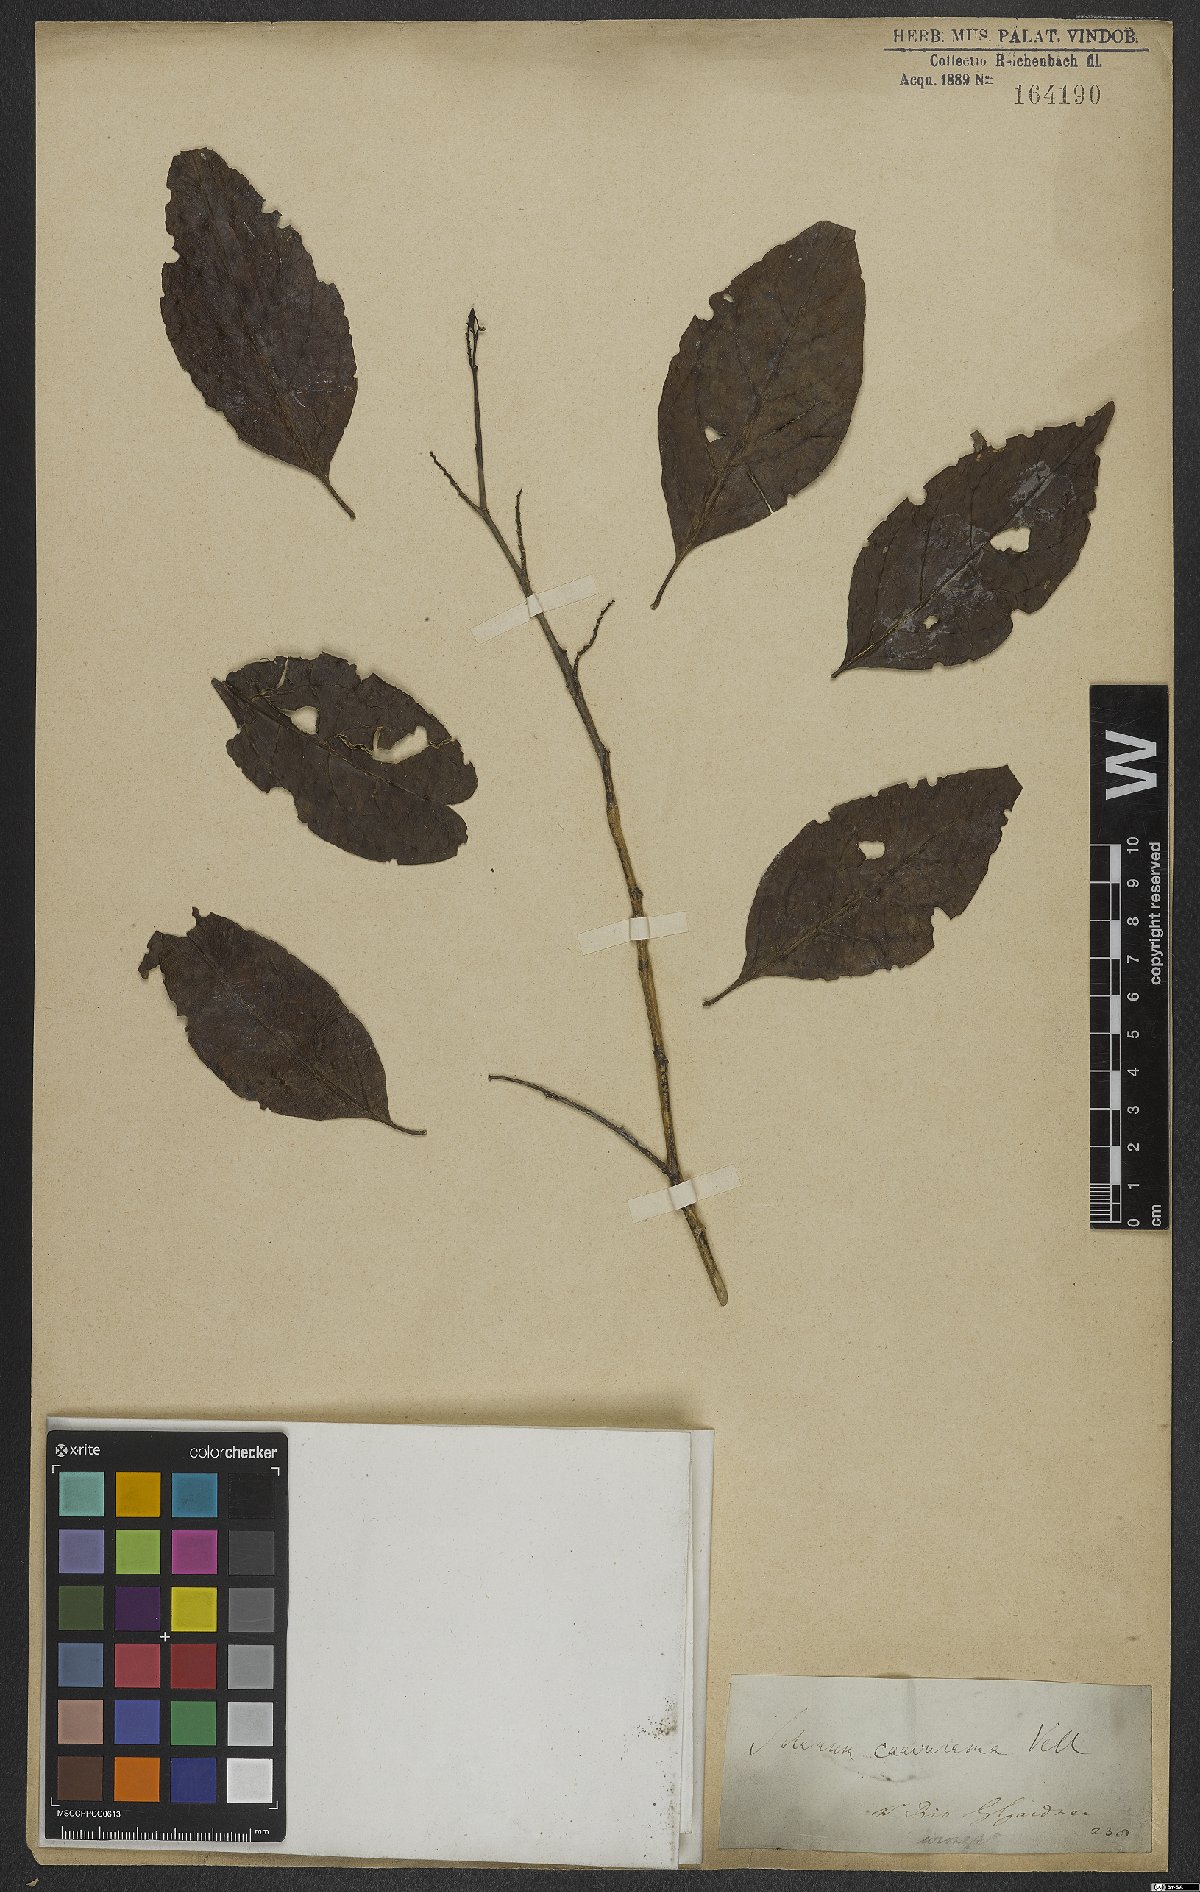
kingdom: Plantae
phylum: Tracheophyta
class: Magnoliopsida
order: Solanales
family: Solanaceae
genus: Solanum
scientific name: Solanum caavurana
